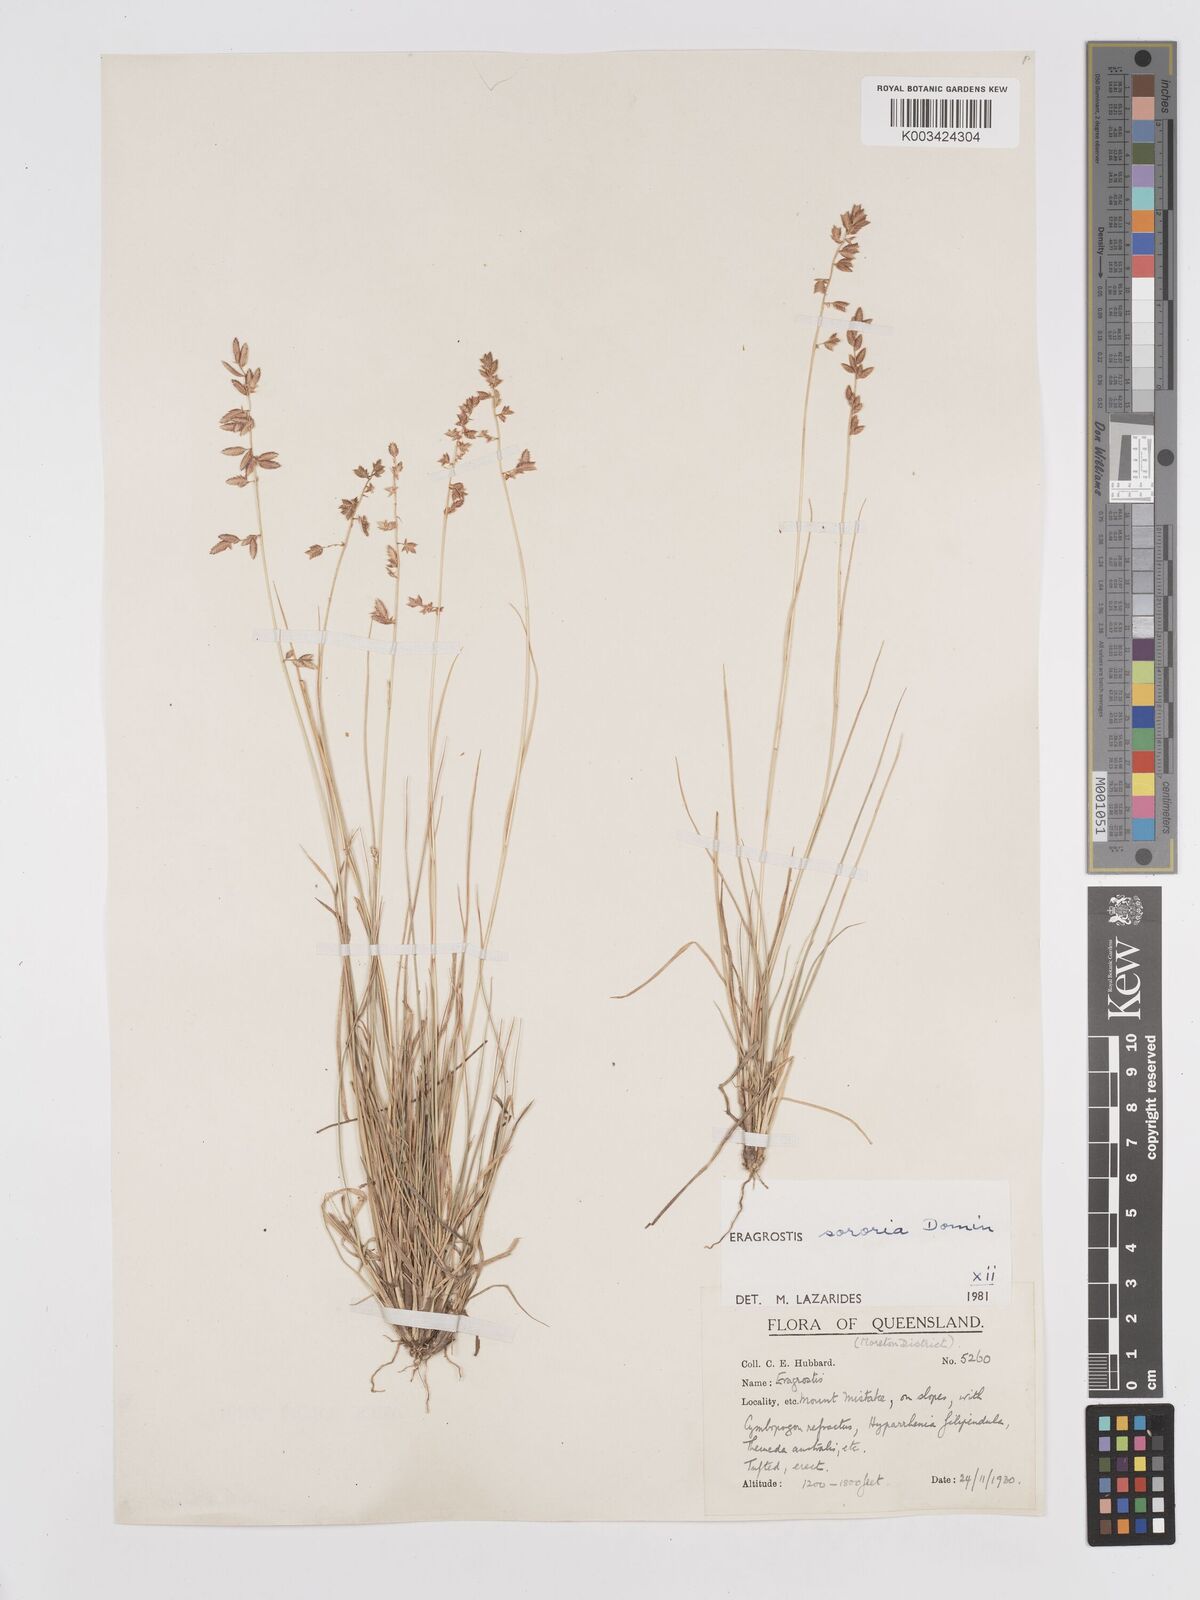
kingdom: Plantae
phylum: Tracheophyta
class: Liliopsida
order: Poales
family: Poaceae
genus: Eragrostis
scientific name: Eragrostis sororia
